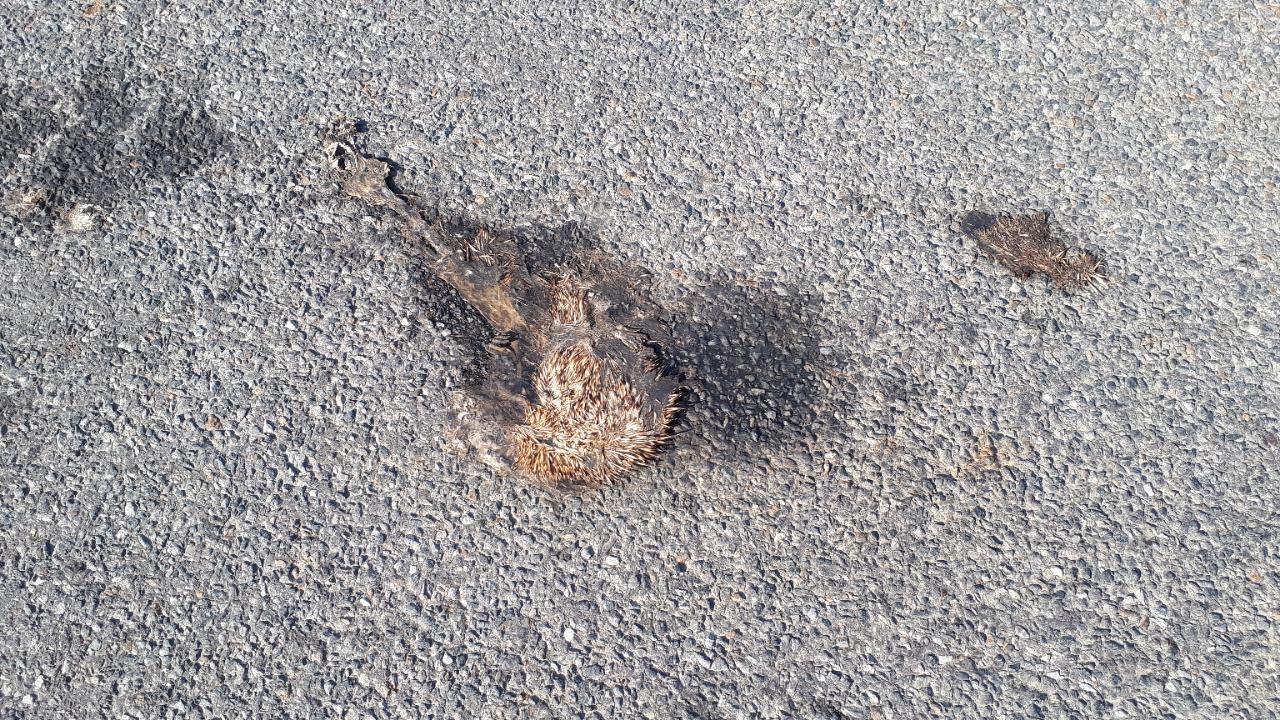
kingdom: Animalia
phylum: Chordata
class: Mammalia
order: Erinaceomorpha
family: Erinaceidae
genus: Erinaceus
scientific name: Erinaceus
